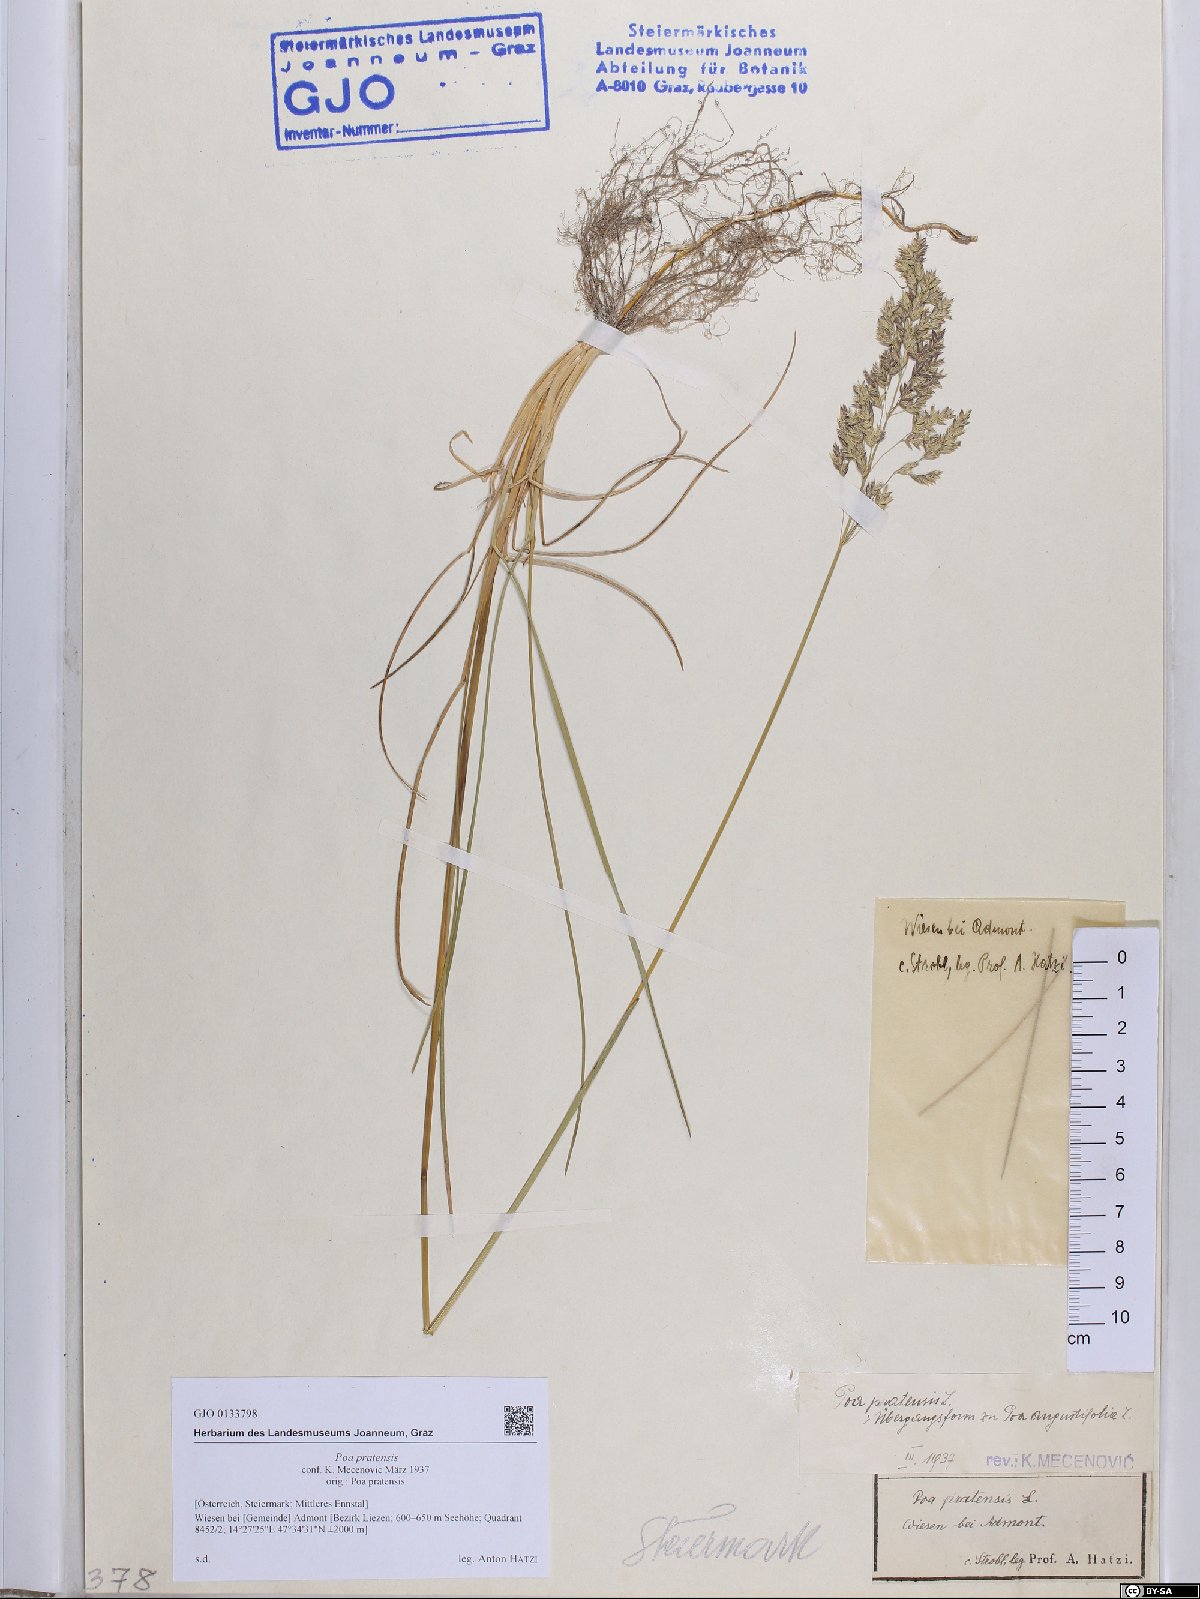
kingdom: Plantae
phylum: Tracheophyta
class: Liliopsida
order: Poales
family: Poaceae
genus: Poa
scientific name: Poa pratensis
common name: Kentucky bluegrass
